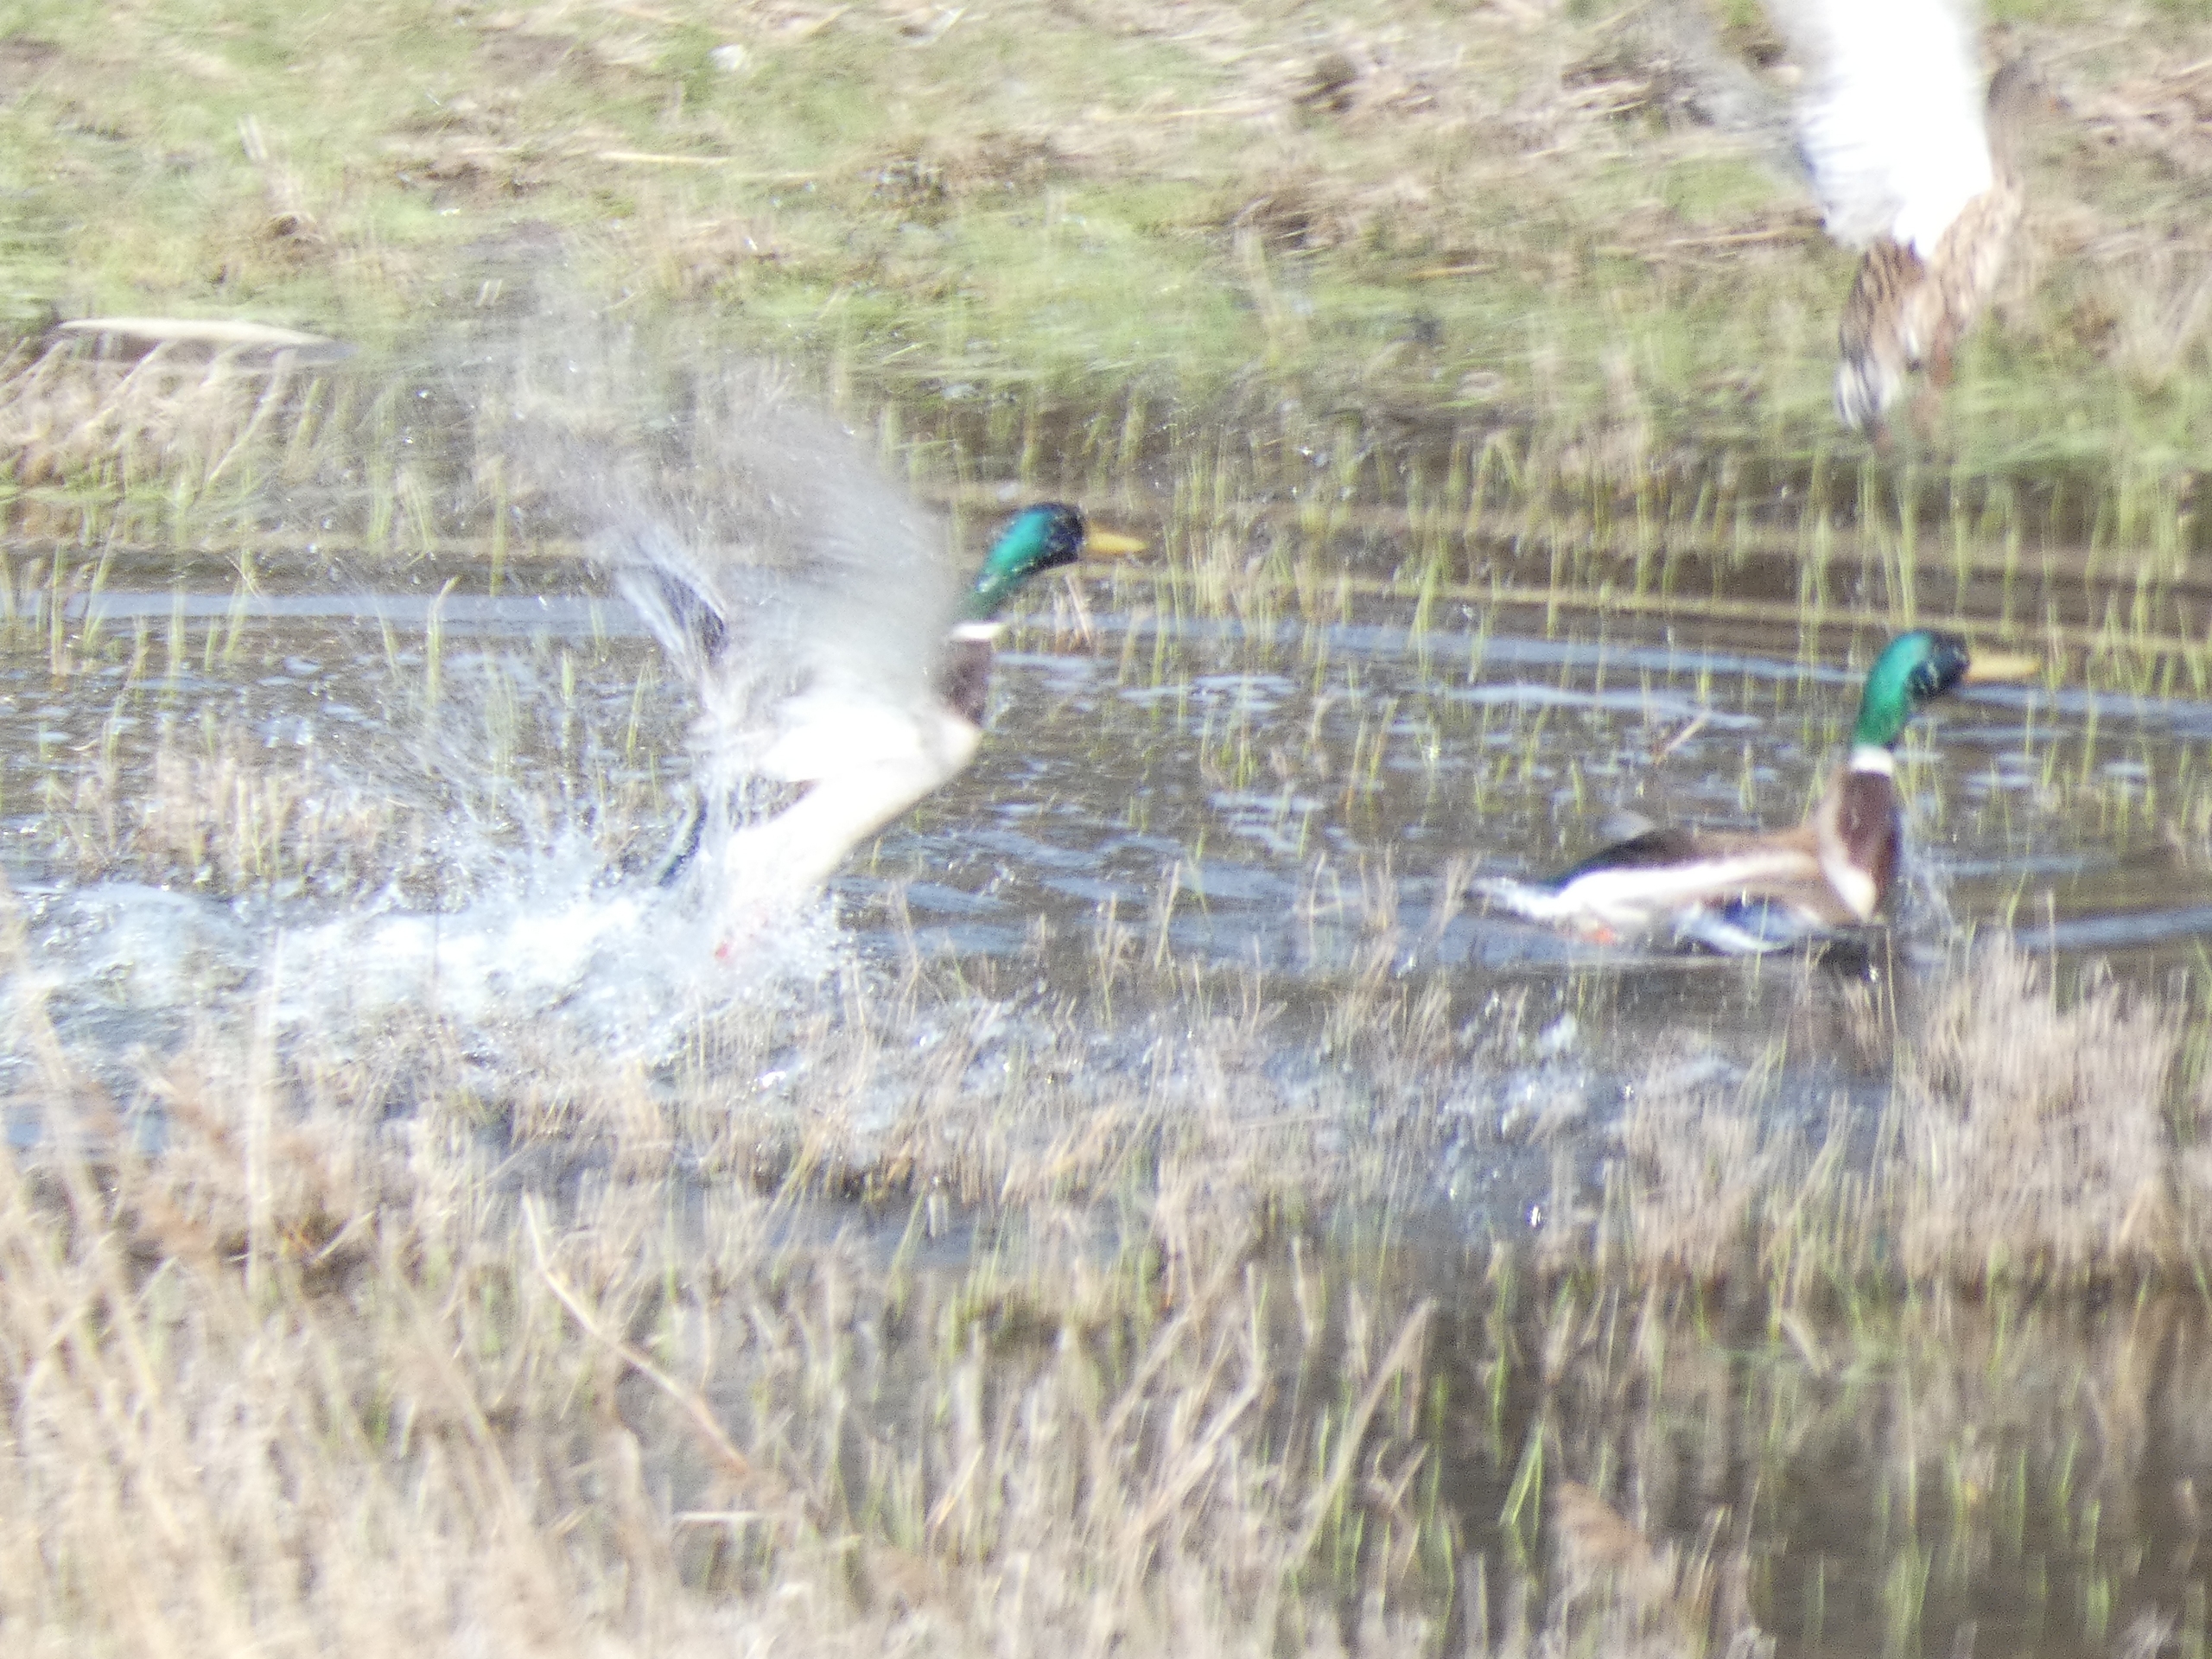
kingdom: Animalia
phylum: Chordata
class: Aves
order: Anseriformes
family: Anatidae
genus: Anas
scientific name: Anas platyrhynchos
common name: Gråand
